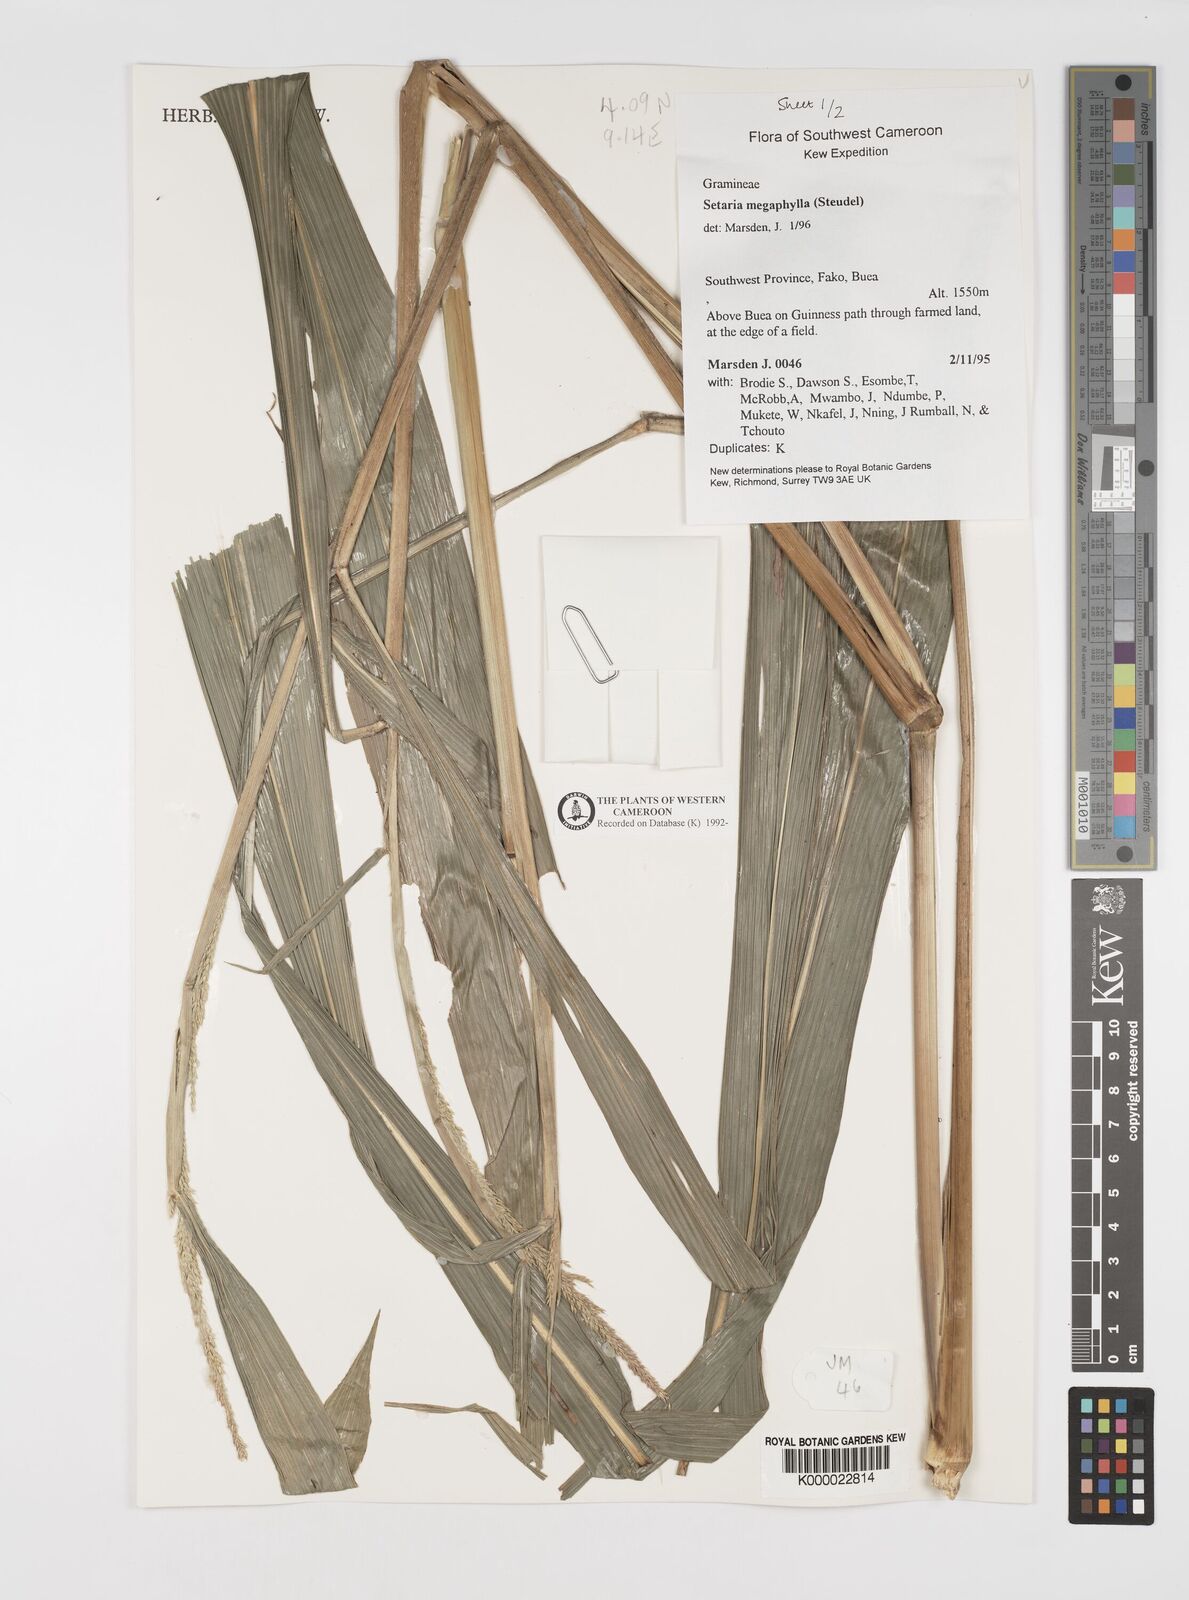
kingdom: Plantae
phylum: Tracheophyta
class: Liliopsida
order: Poales
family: Poaceae
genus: Setaria
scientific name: Setaria megaphylla
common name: Bigleaf bristlegrass
